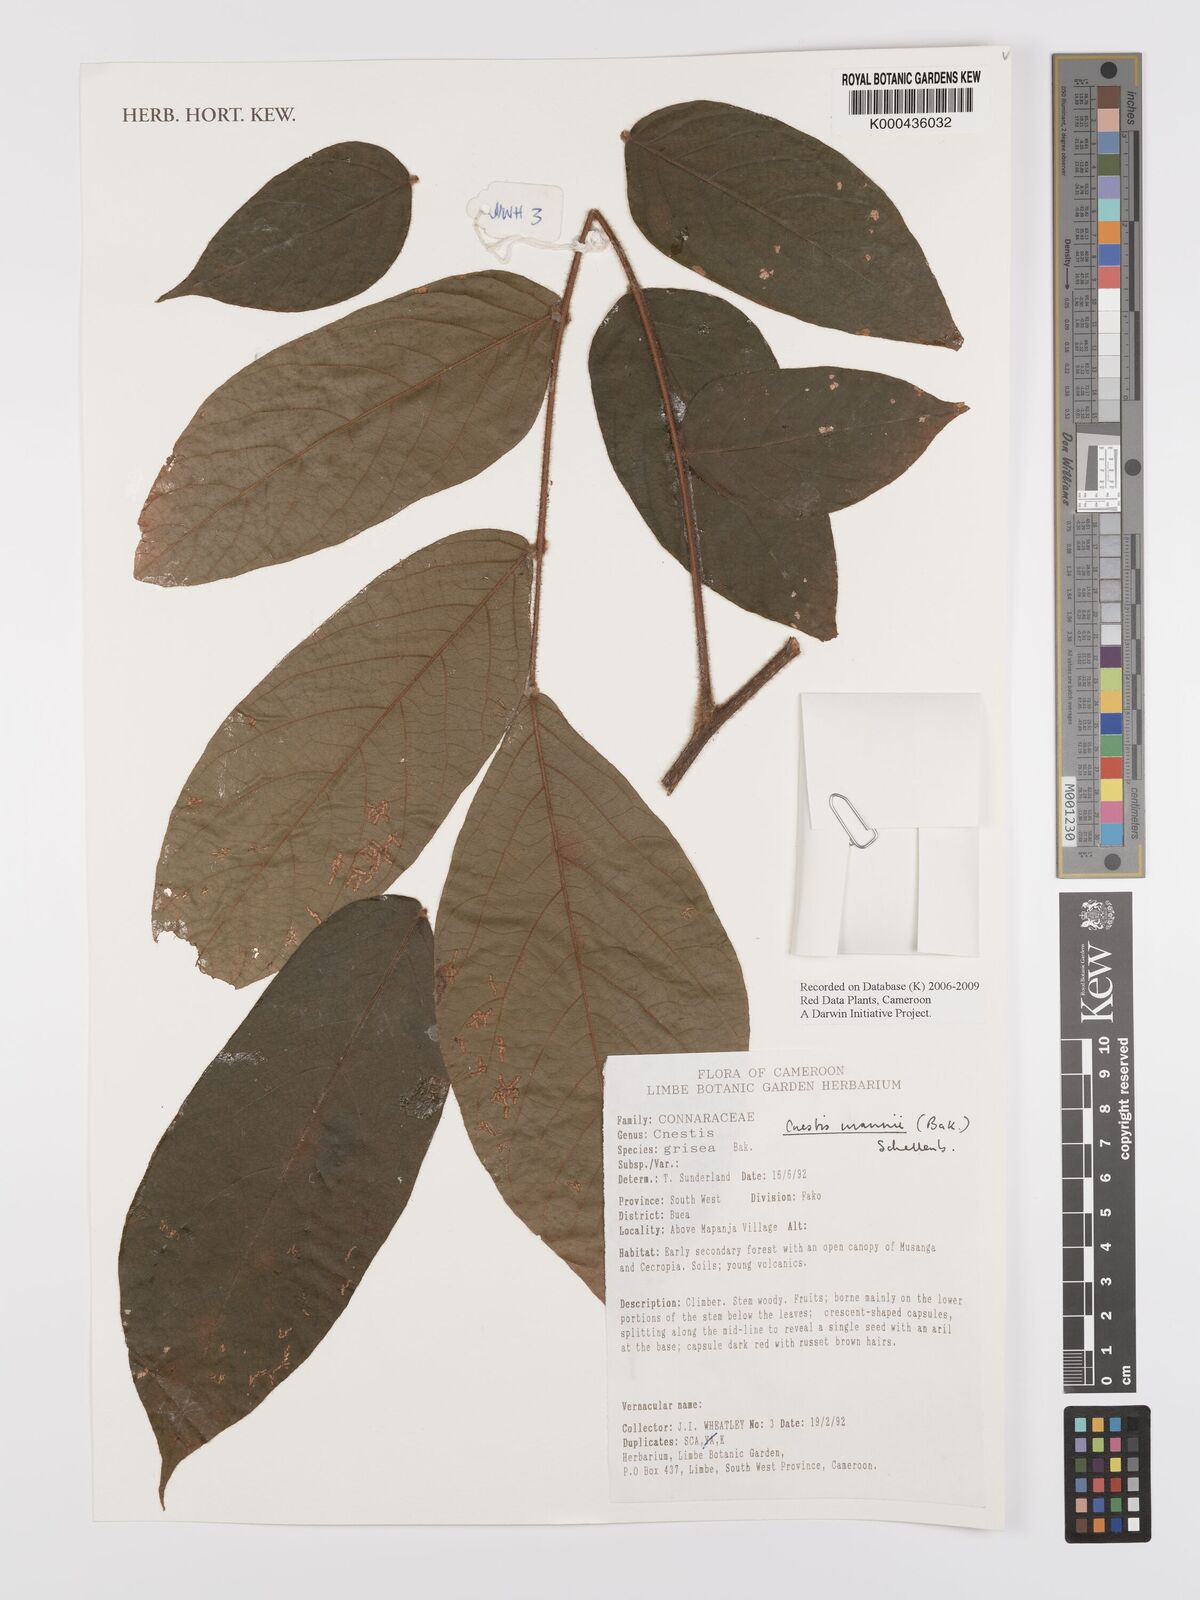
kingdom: Plantae
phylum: Tracheophyta
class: Magnoliopsida
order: Oxalidales
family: Connaraceae
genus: Cnestis
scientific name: Cnestis mannii
